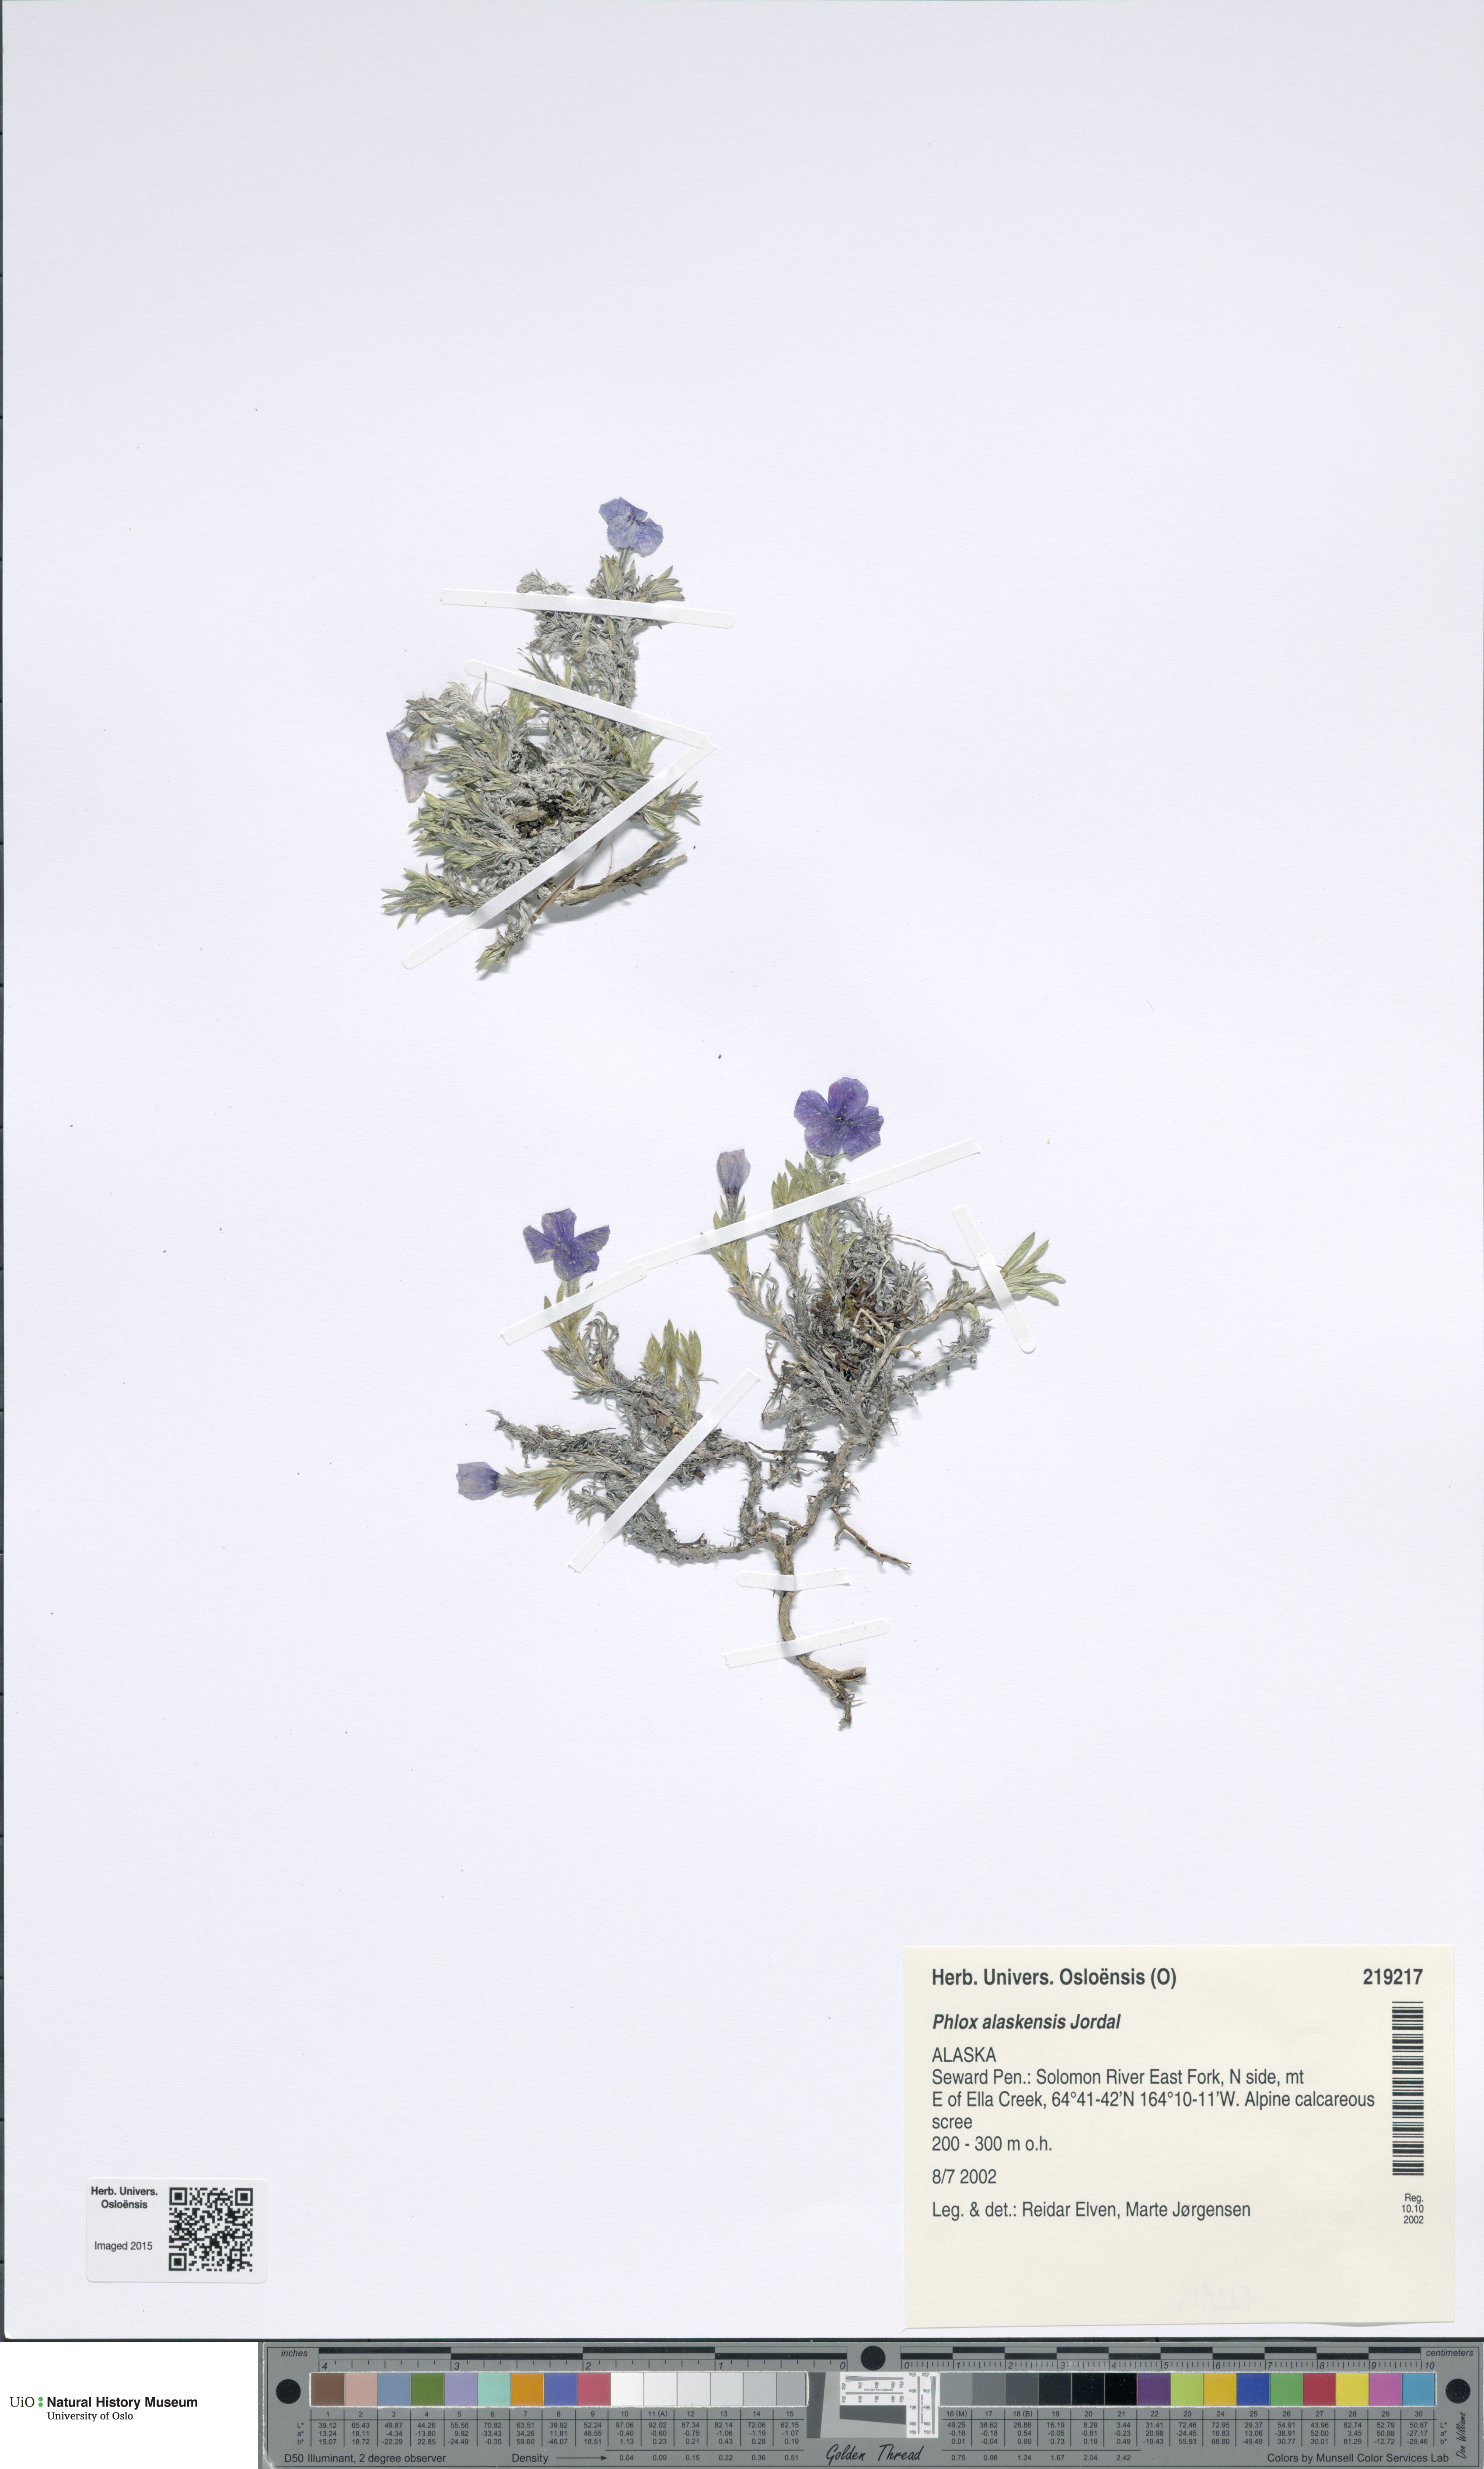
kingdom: Plantae
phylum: Tracheophyta
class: Magnoliopsida
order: Ericales
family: Polemoniaceae
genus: Phlox
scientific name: Phlox richardsonii
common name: Richardson's phlox
